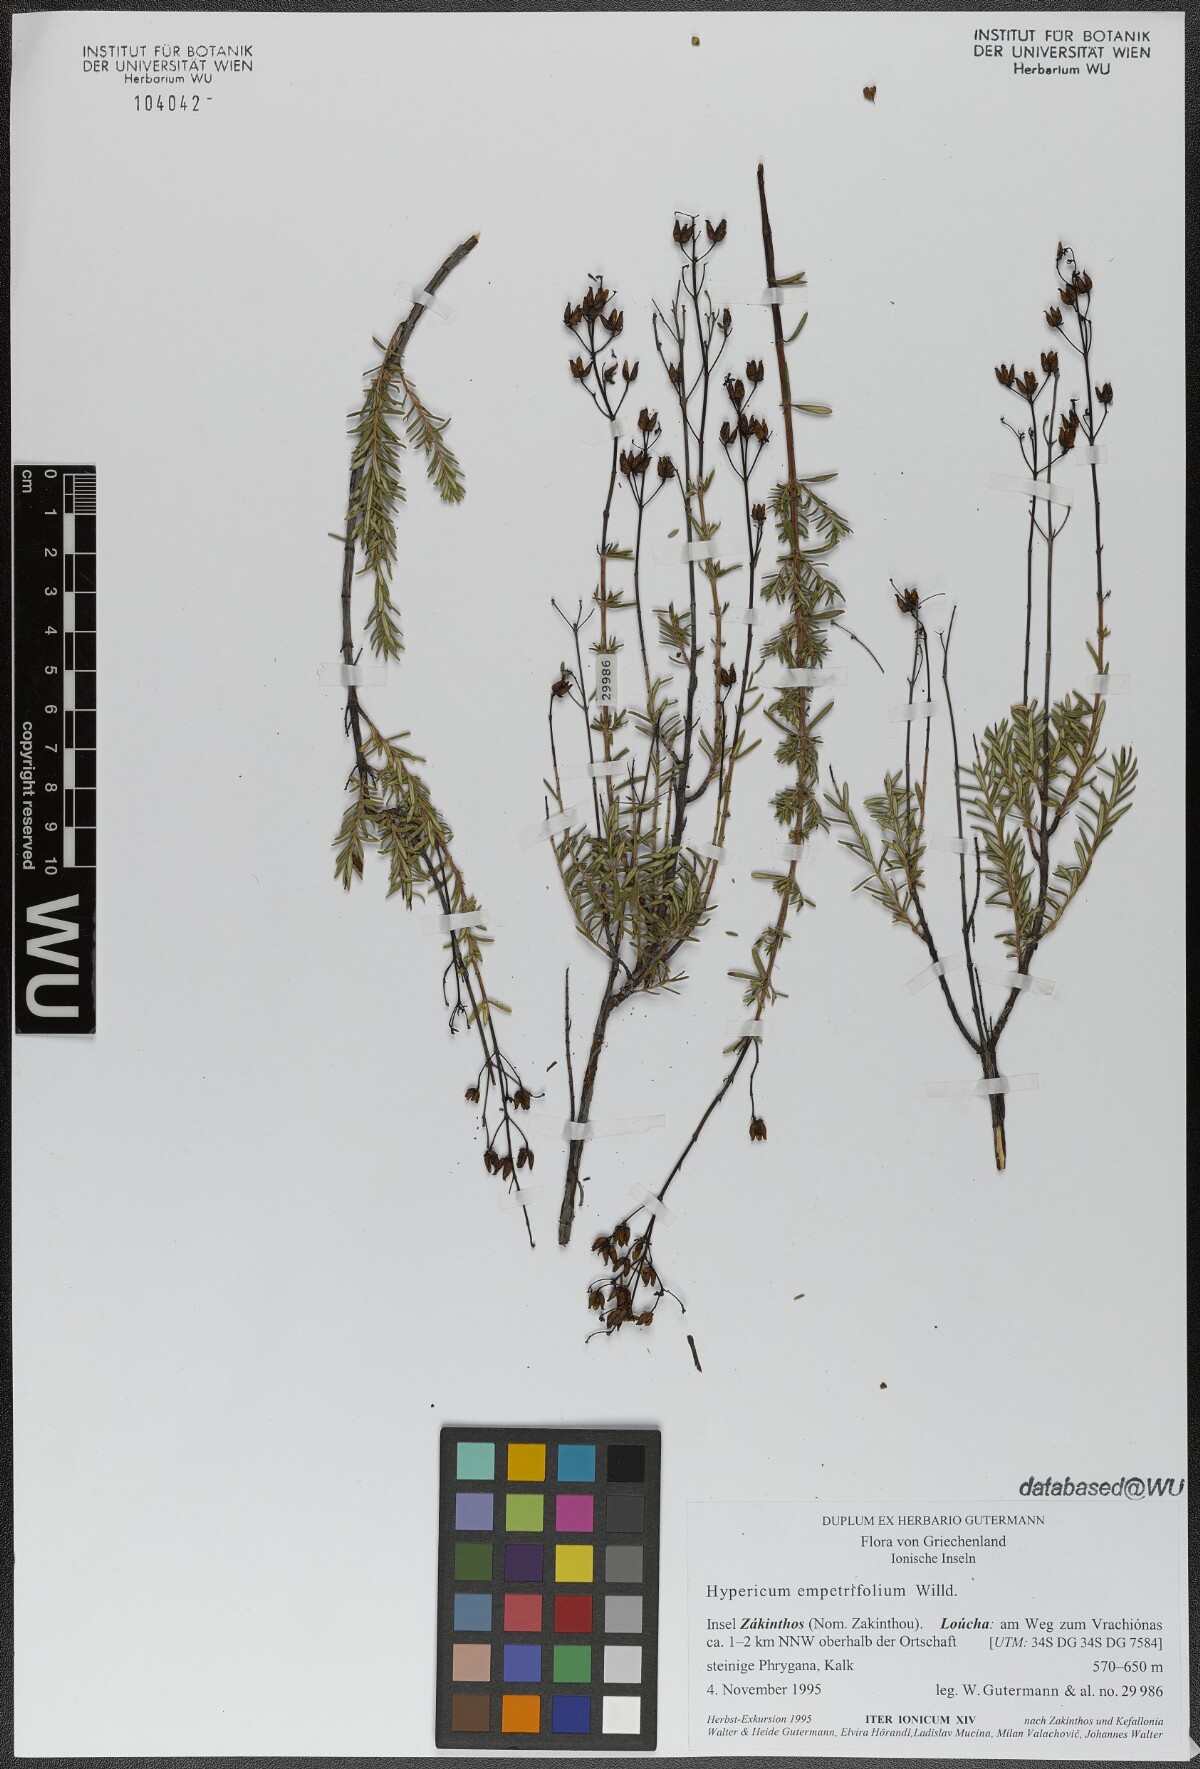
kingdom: Plantae
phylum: Tracheophyta
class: Magnoliopsida
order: Malpighiales
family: Hypericaceae
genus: Hypericum
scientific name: Hypericum empetrifolium
